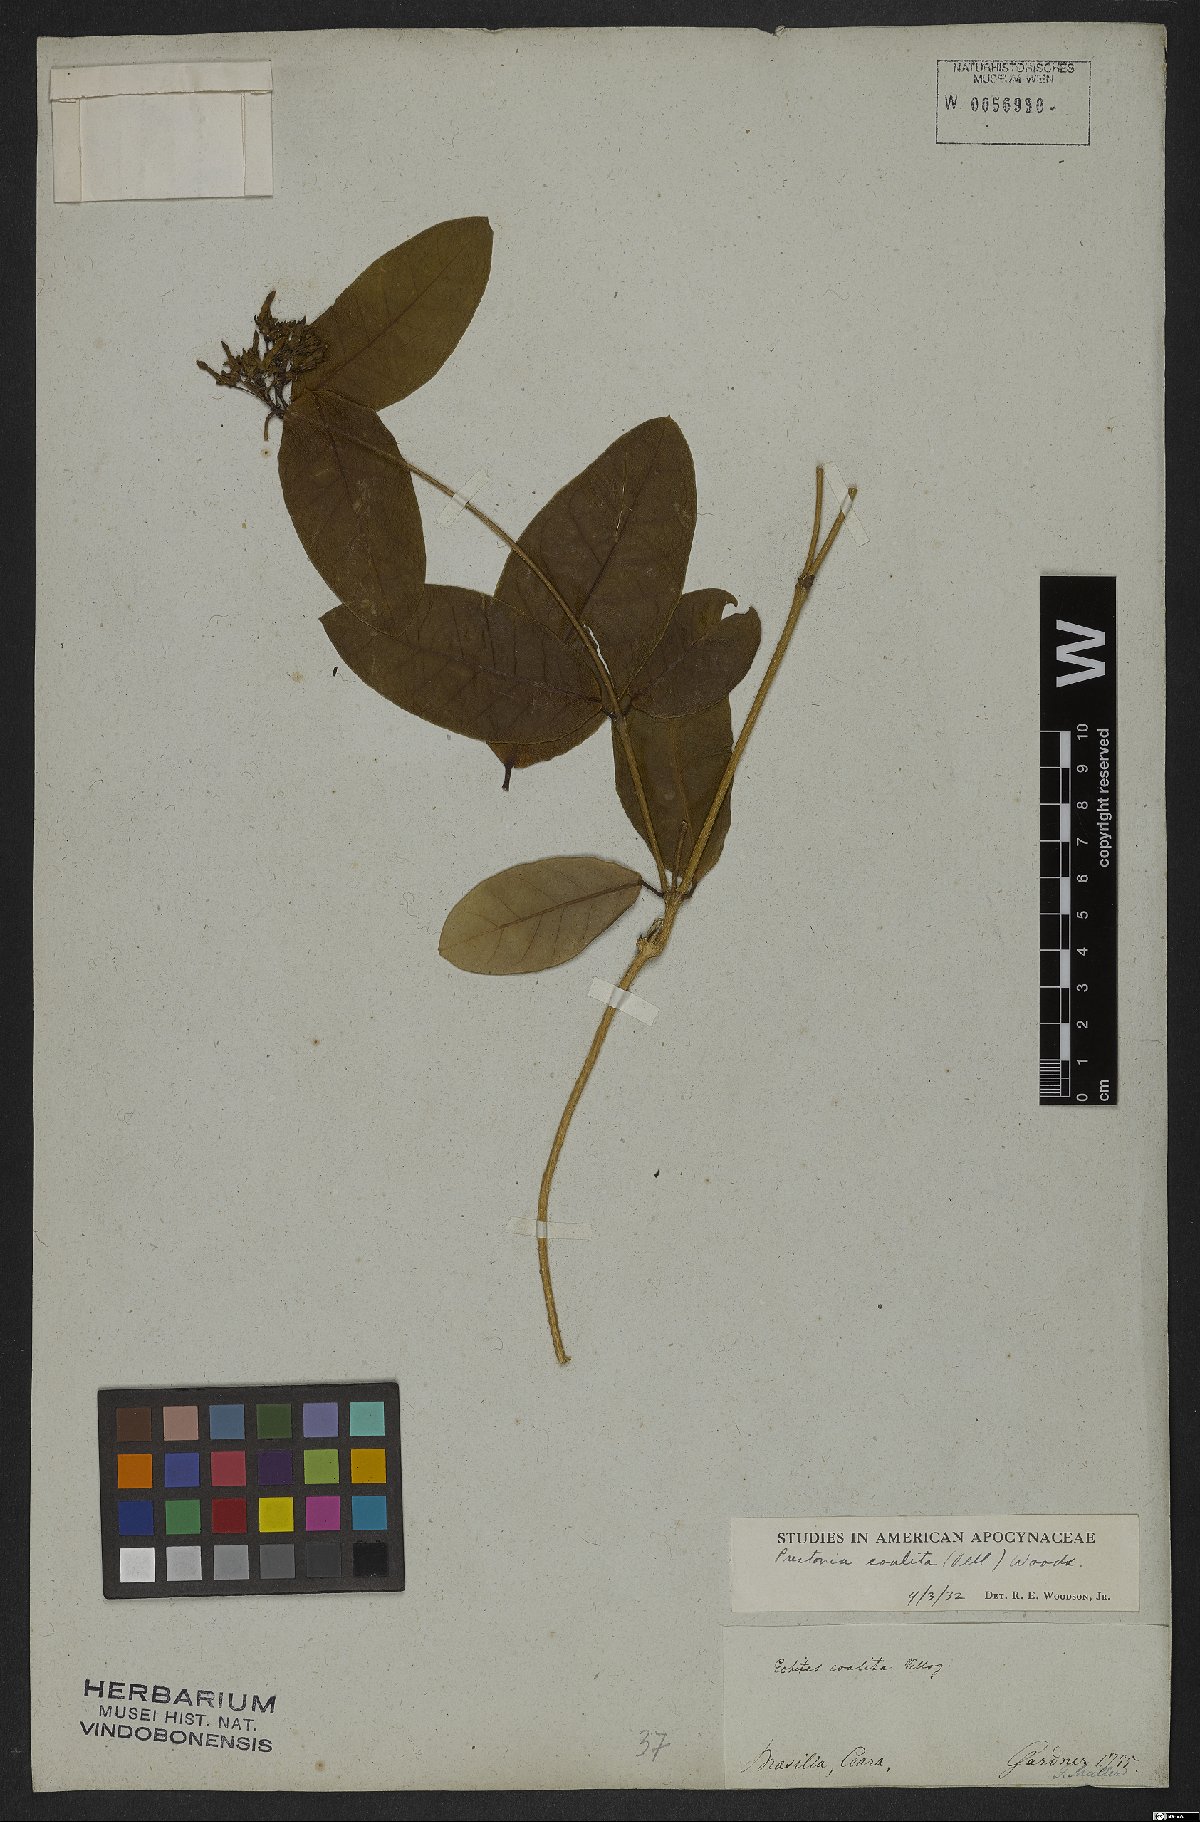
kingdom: Plantae
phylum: Tracheophyta
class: Magnoliopsida
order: Gentianales
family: Apocynaceae
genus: Prestonia
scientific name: Prestonia coalita
